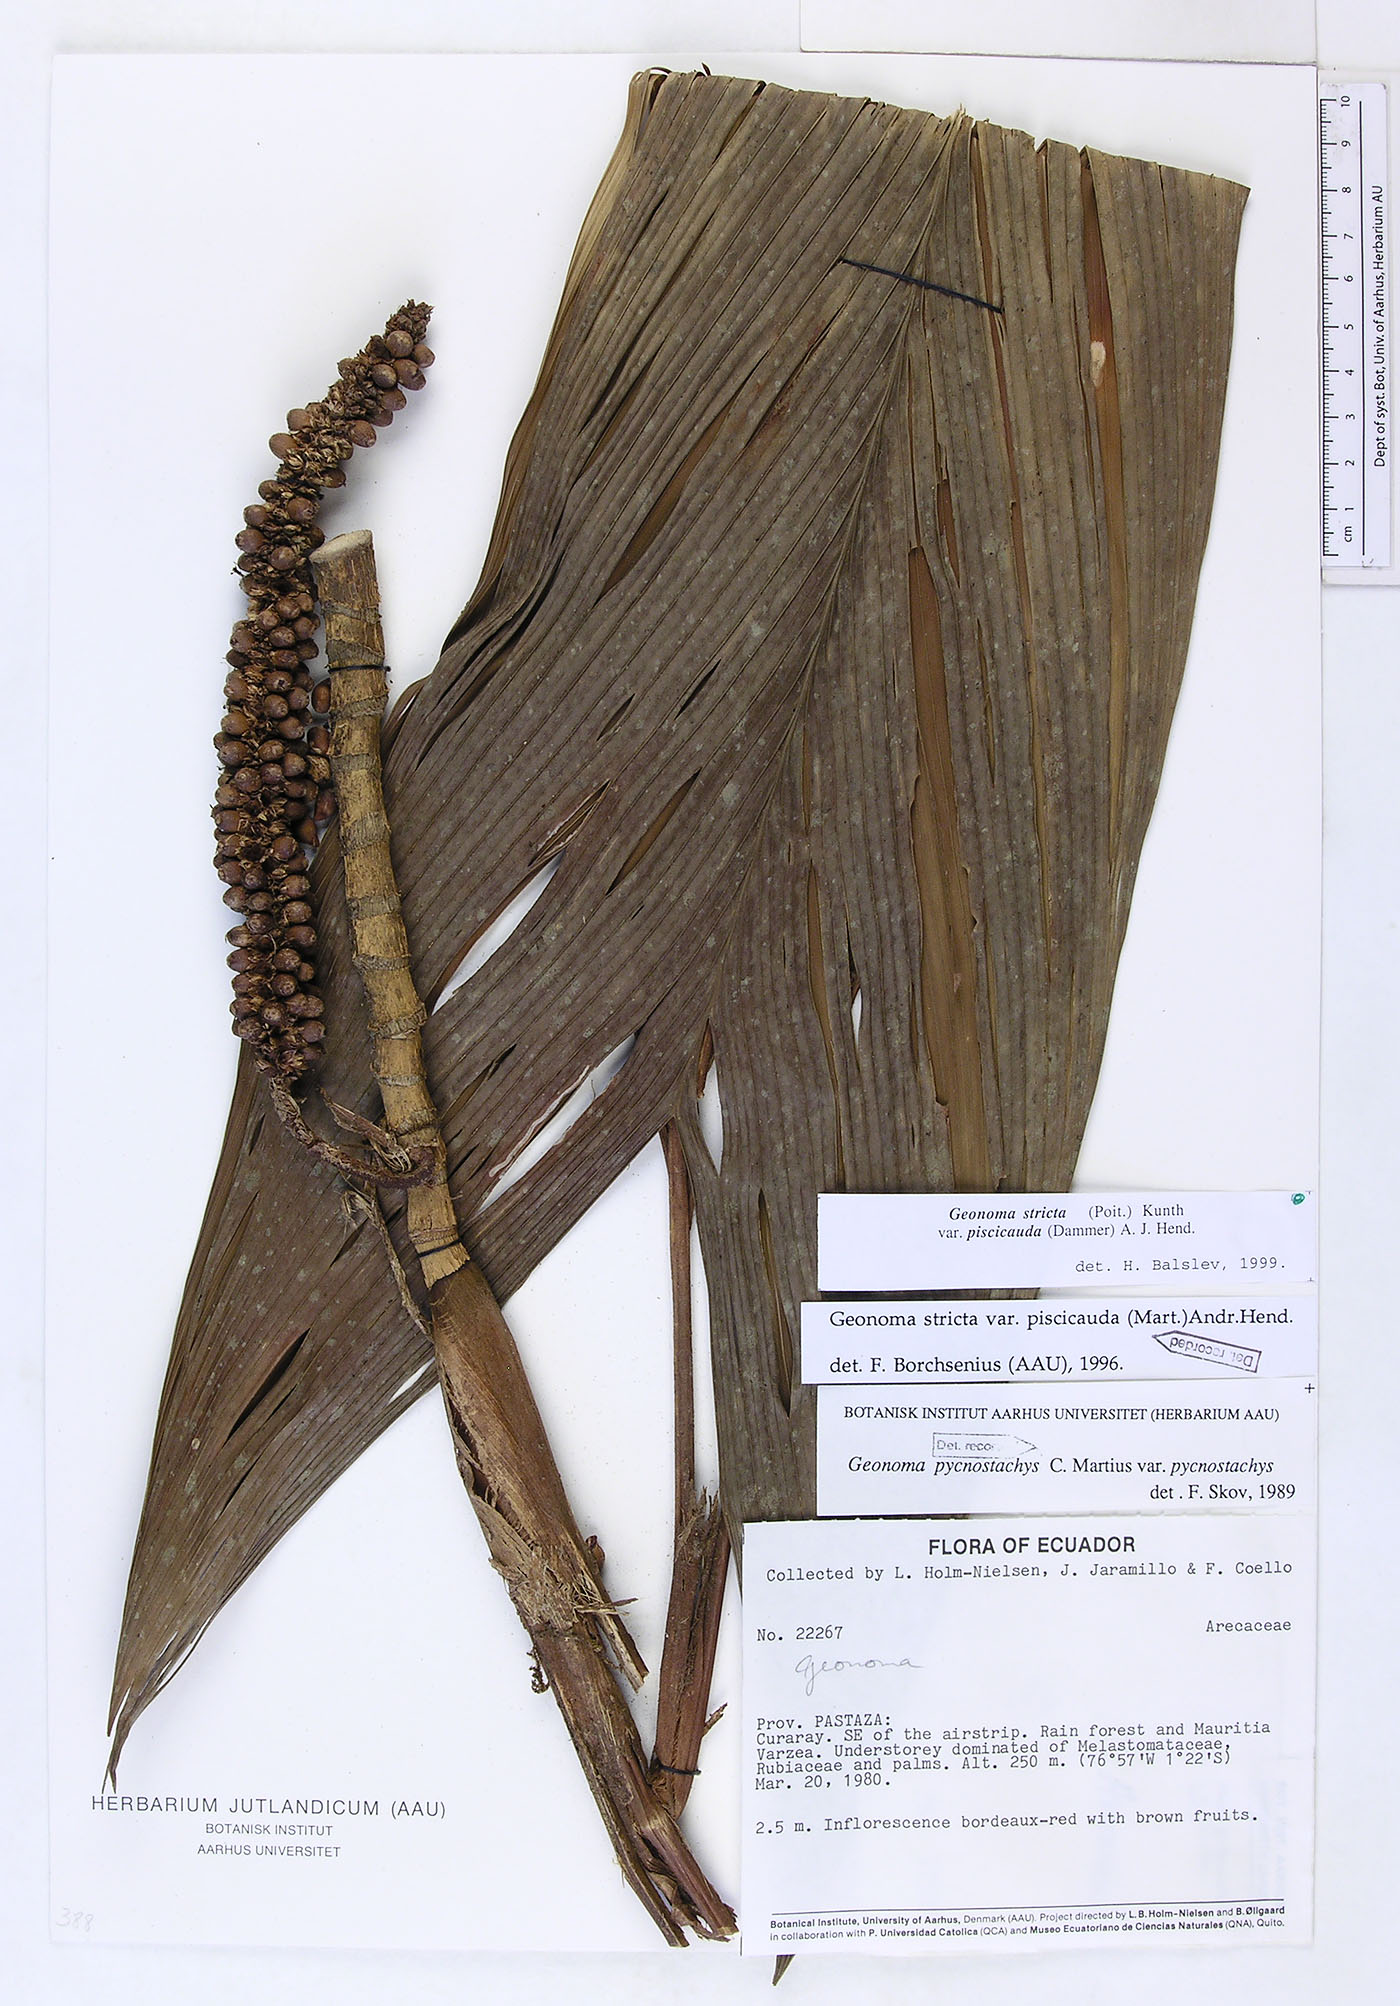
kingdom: Plantae
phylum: Tracheophyta
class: Liliopsida
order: Arecales
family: Arecaceae
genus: Geonoma
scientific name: Geonoma stricta
